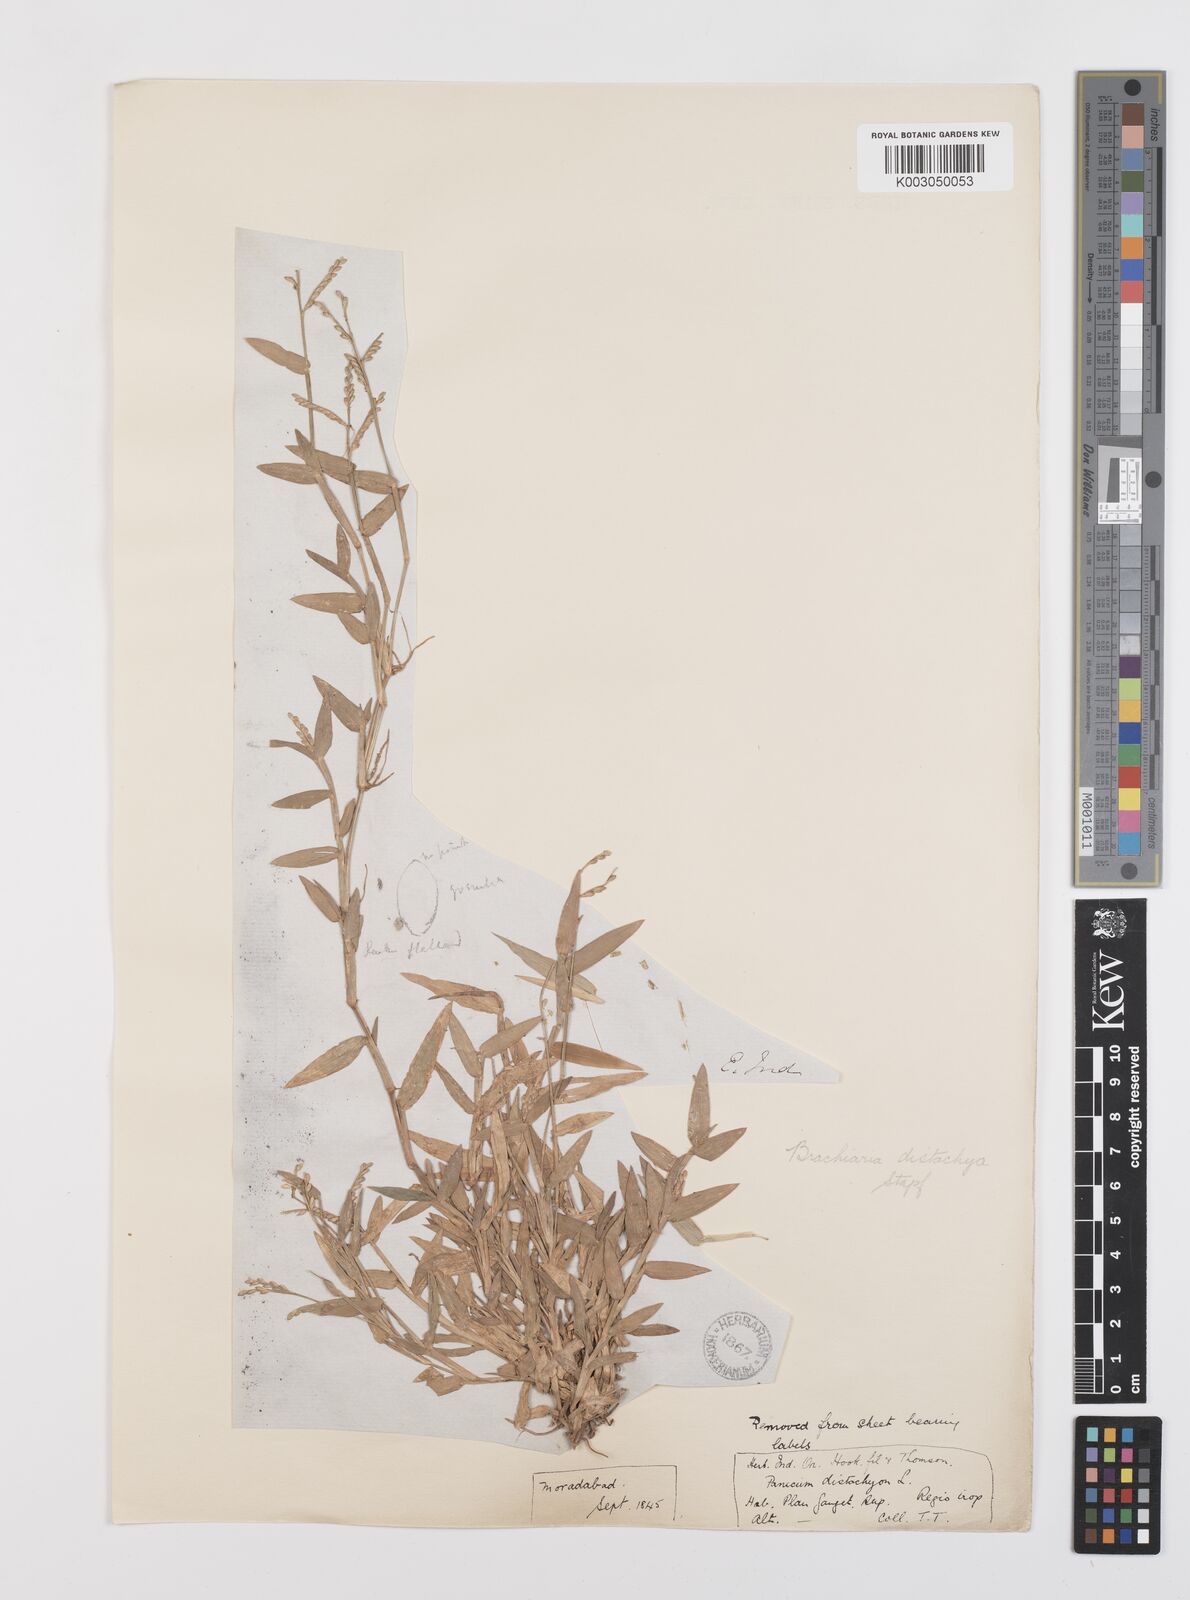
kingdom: Plantae
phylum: Tracheophyta
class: Liliopsida
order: Poales
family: Poaceae
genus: Urochloa
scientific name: Urochloa distachyos
